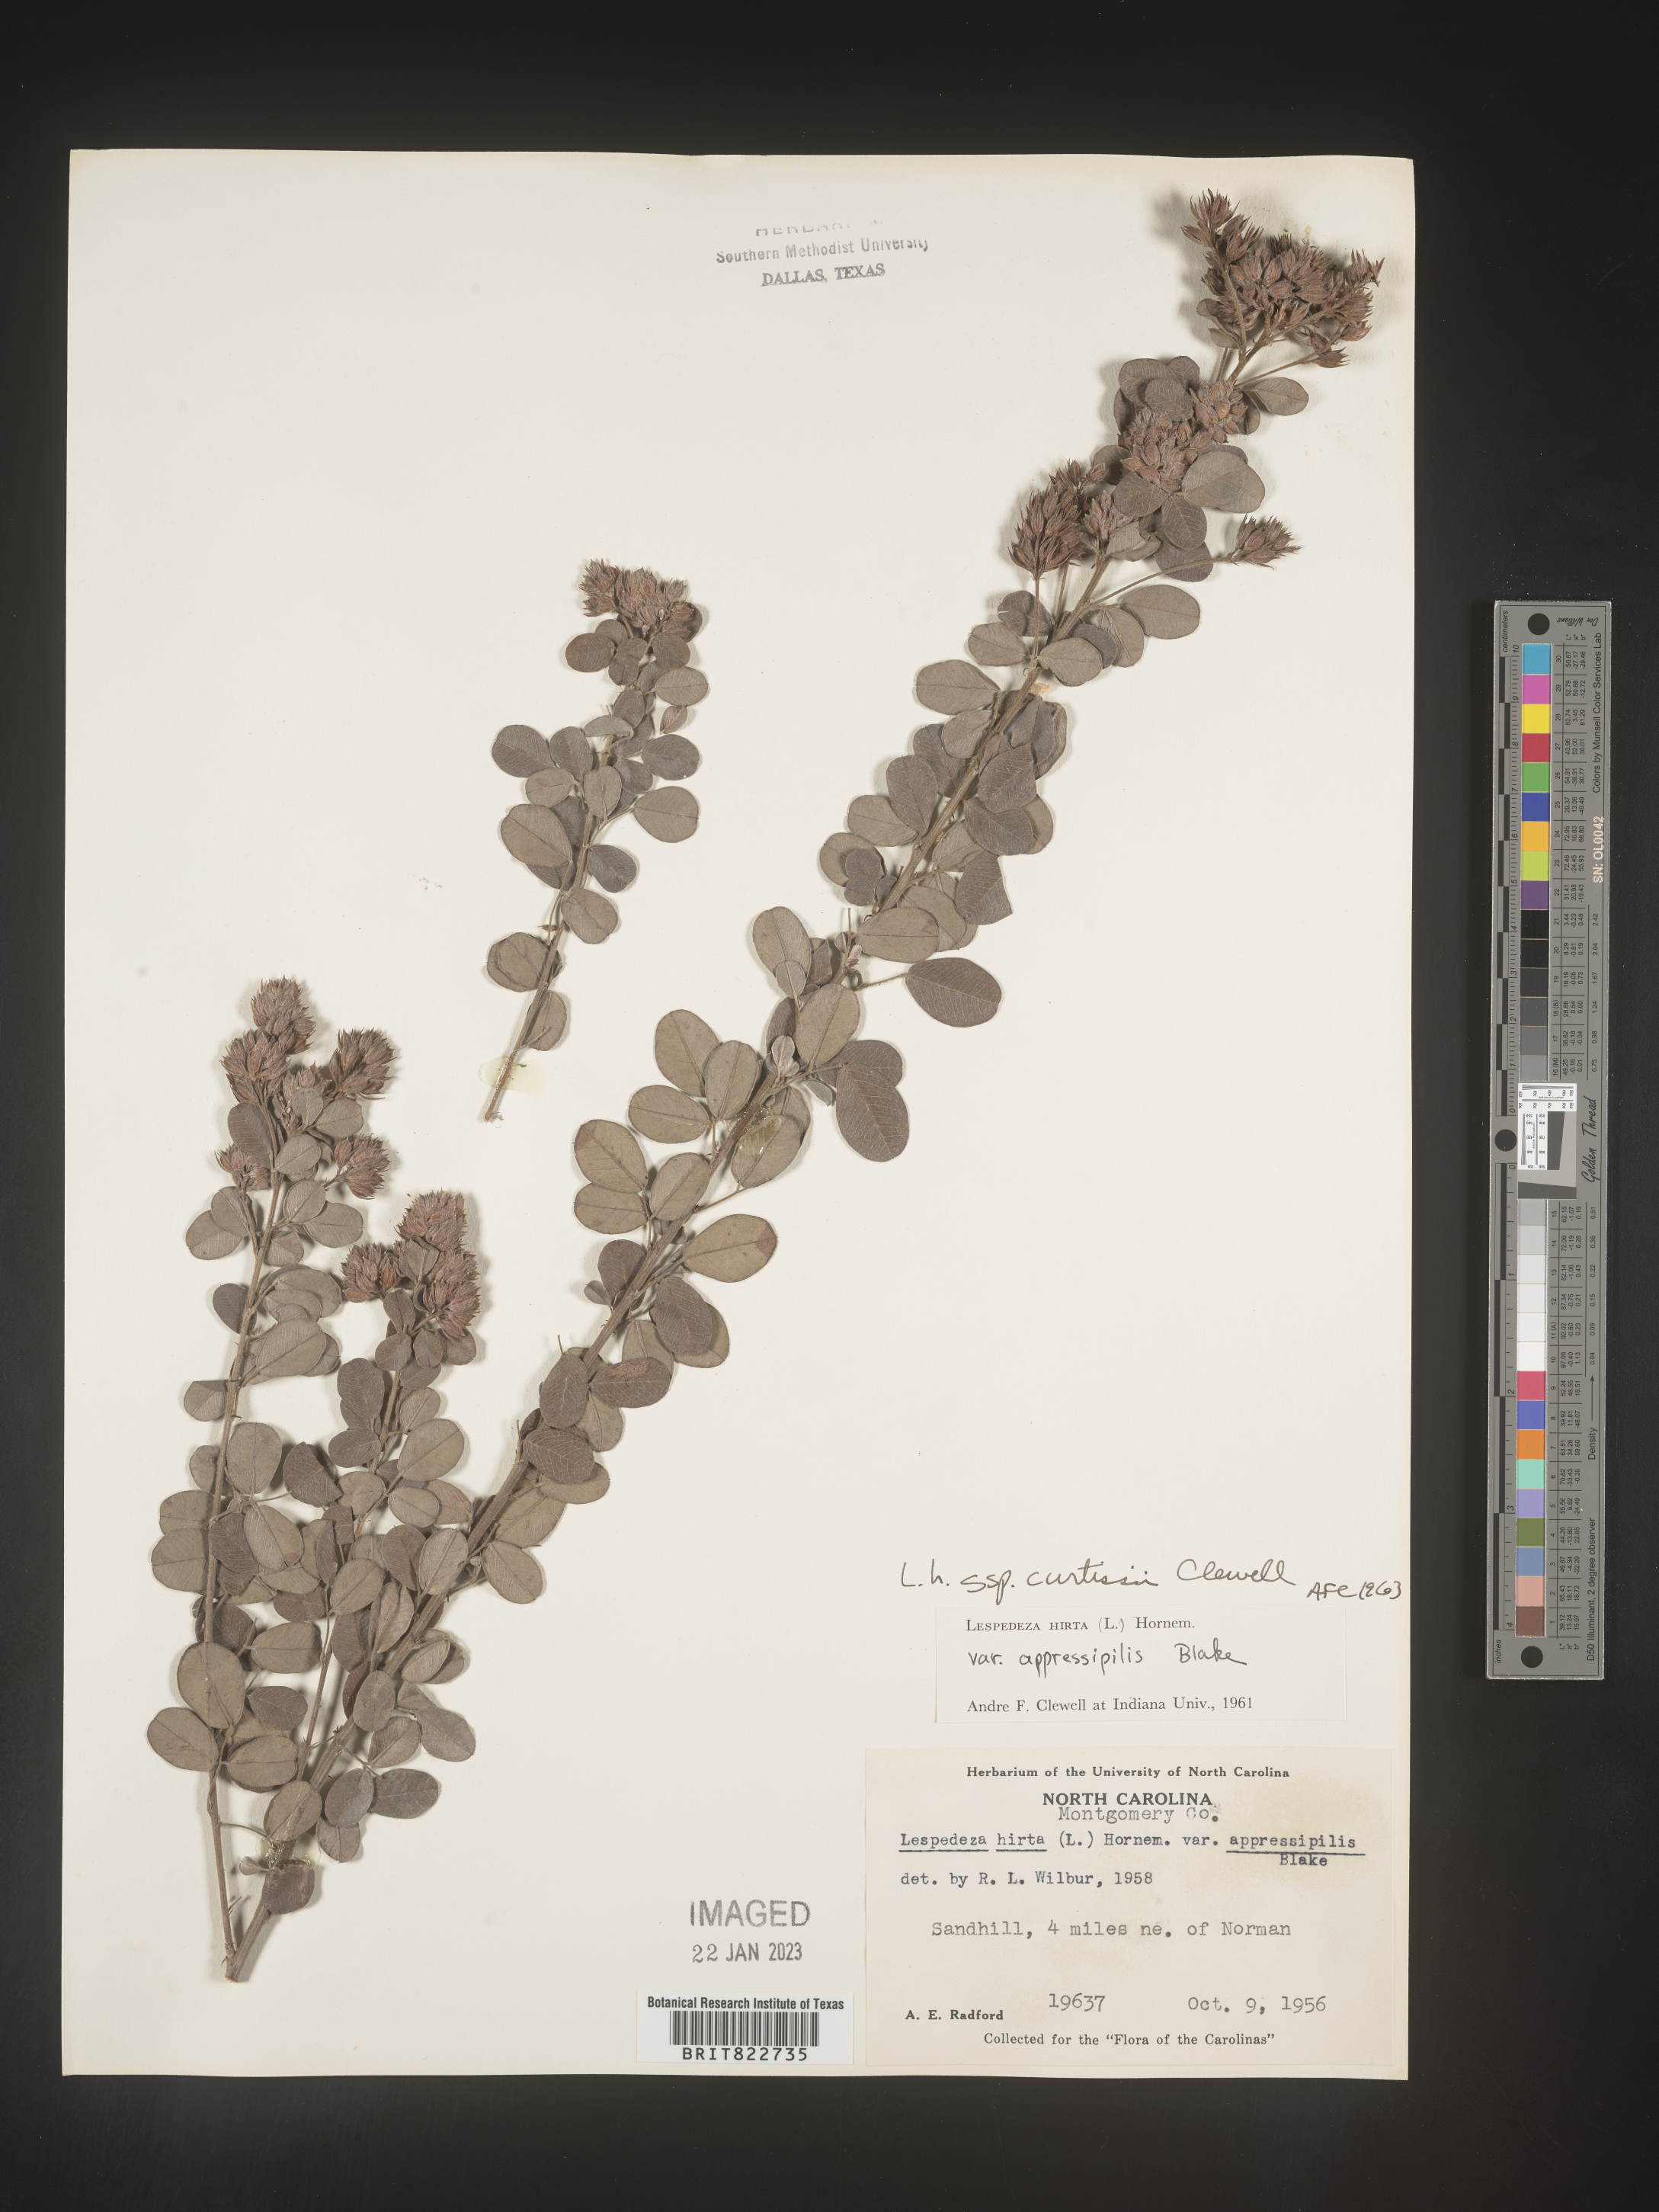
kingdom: Plantae
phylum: Tracheophyta
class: Magnoliopsida
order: Fabales
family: Fabaceae
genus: Lespedeza
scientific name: Lespedeza hirta
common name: Hairy lespedeza
